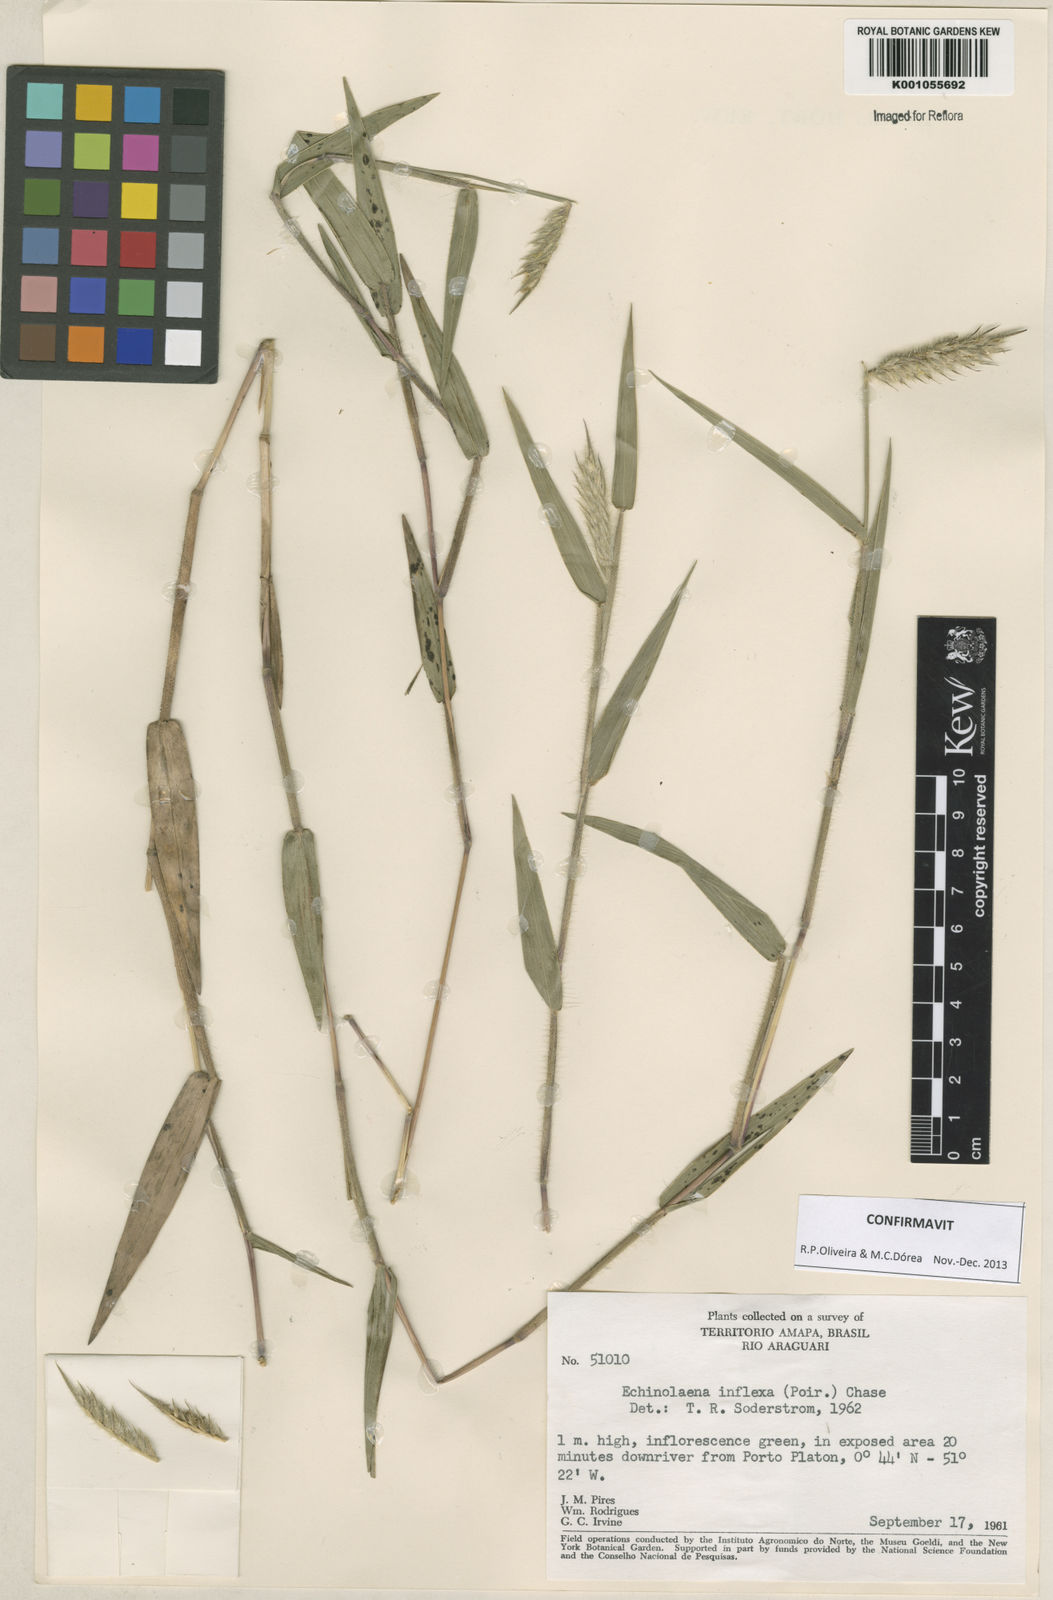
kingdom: Plantae
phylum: Tracheophyta
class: Liliopsida
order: Poales
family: Poaceae
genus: Echinolaena
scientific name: Echinolaena inflexa
